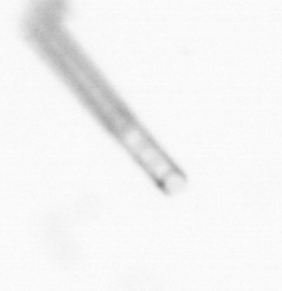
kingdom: Chromista
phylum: Ochrophyta
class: Bacillariophyceae
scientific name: Bacillariophyceae
